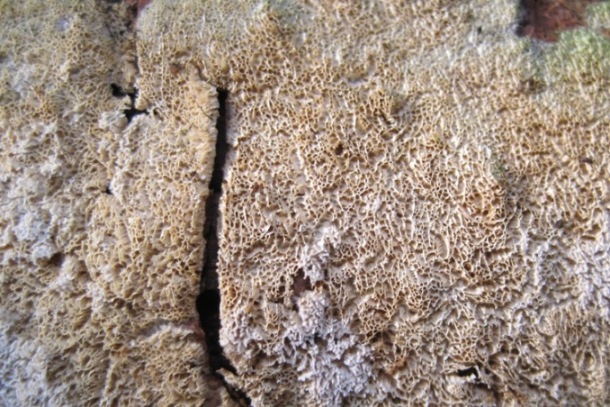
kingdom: Fungi
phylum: Basidiomycota
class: Agaricomycetes
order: Hymenochaetales
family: Schizoporaceae
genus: Xylodon
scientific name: Xylodon subtropicus
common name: labyrint-tandsvamp
